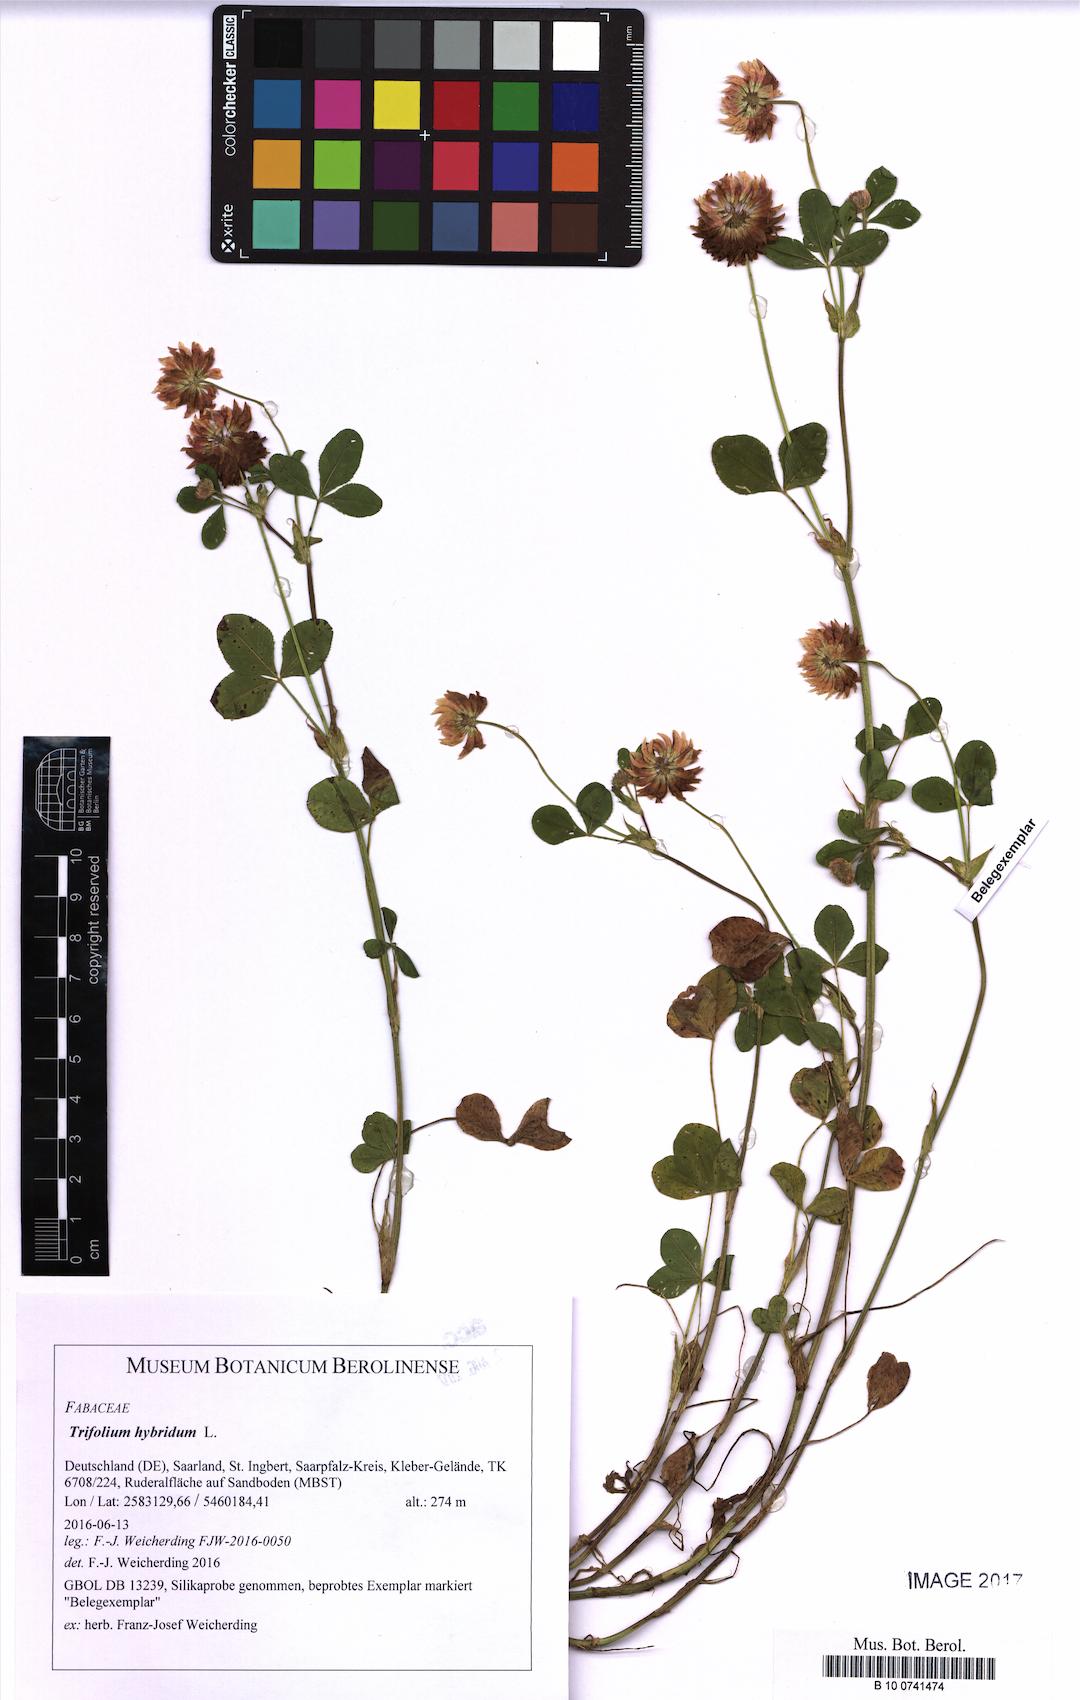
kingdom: Plantae
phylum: Tracheophyta
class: Magnoliopsida
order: Fabales
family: Fabaceae
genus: Trifolium
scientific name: Trifolium hybridum
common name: Alsike clover
